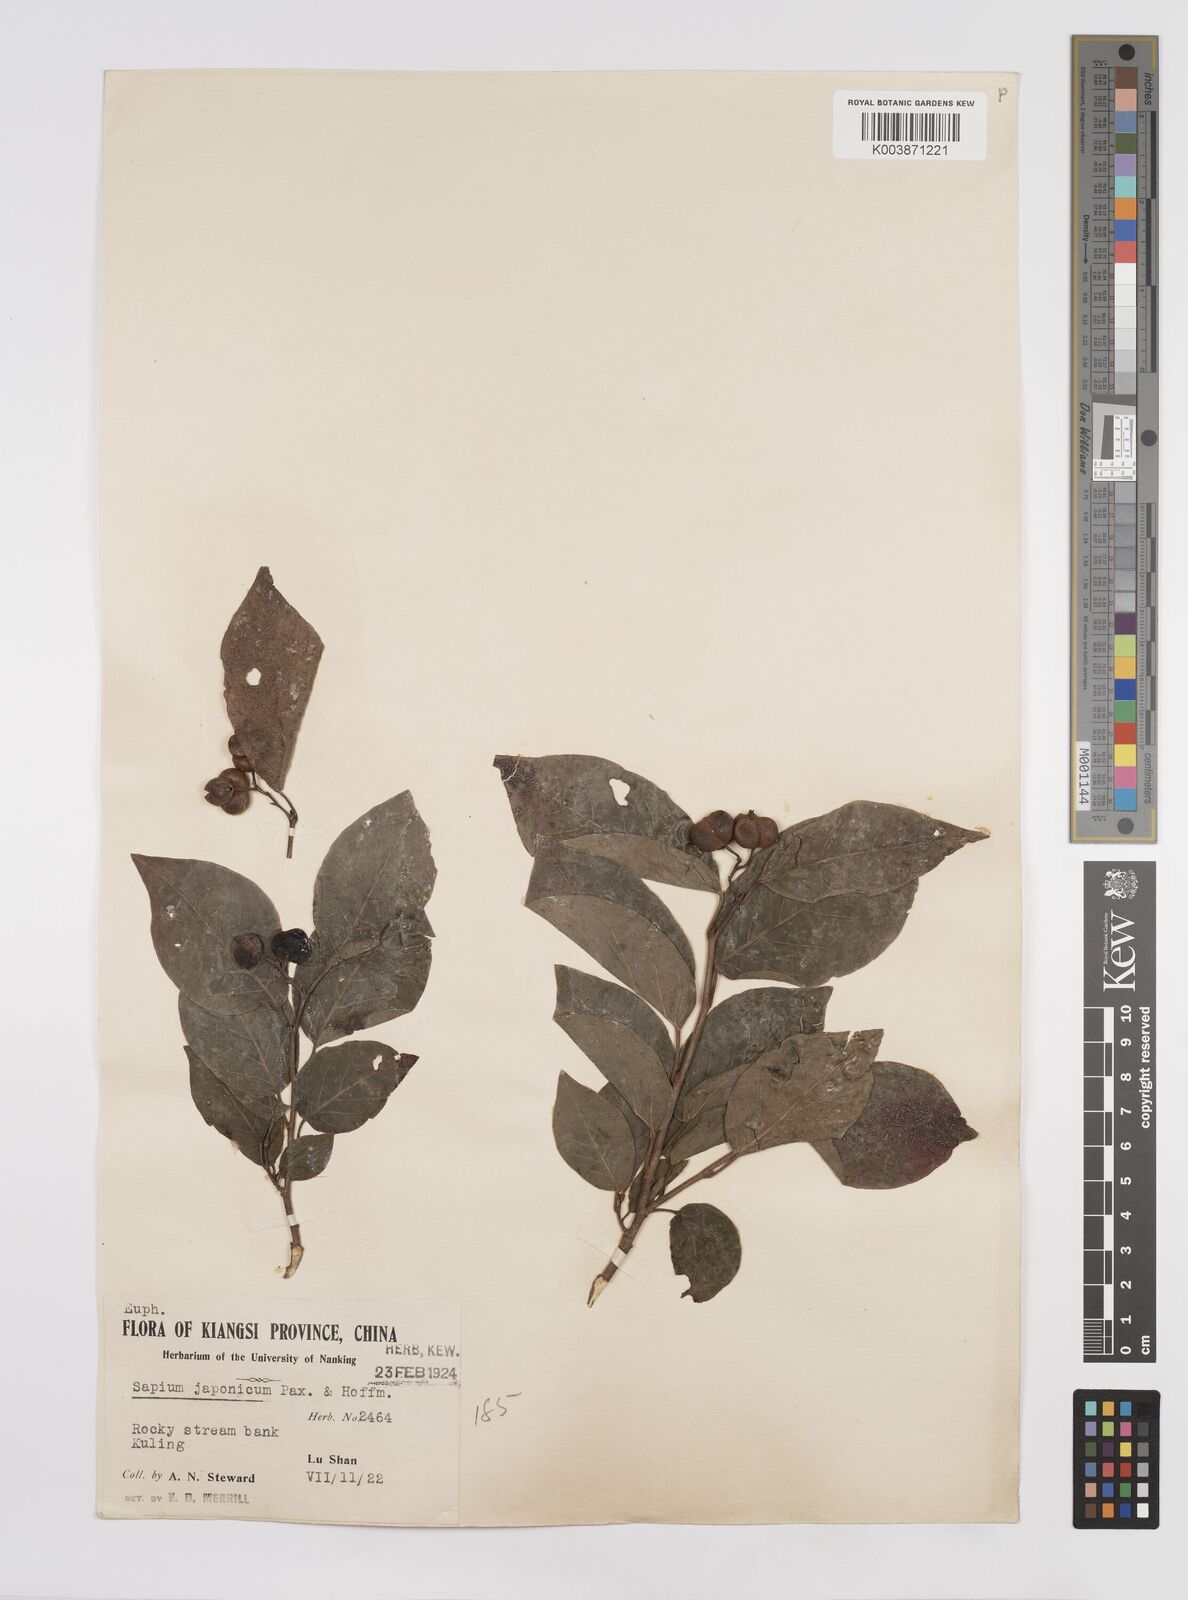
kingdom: Plantae
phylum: Tracheophyta
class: Magnoliopsida
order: Malpighiales
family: Euphorbiaceae
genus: Neoshirakia
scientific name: Neoshirakia japonica
